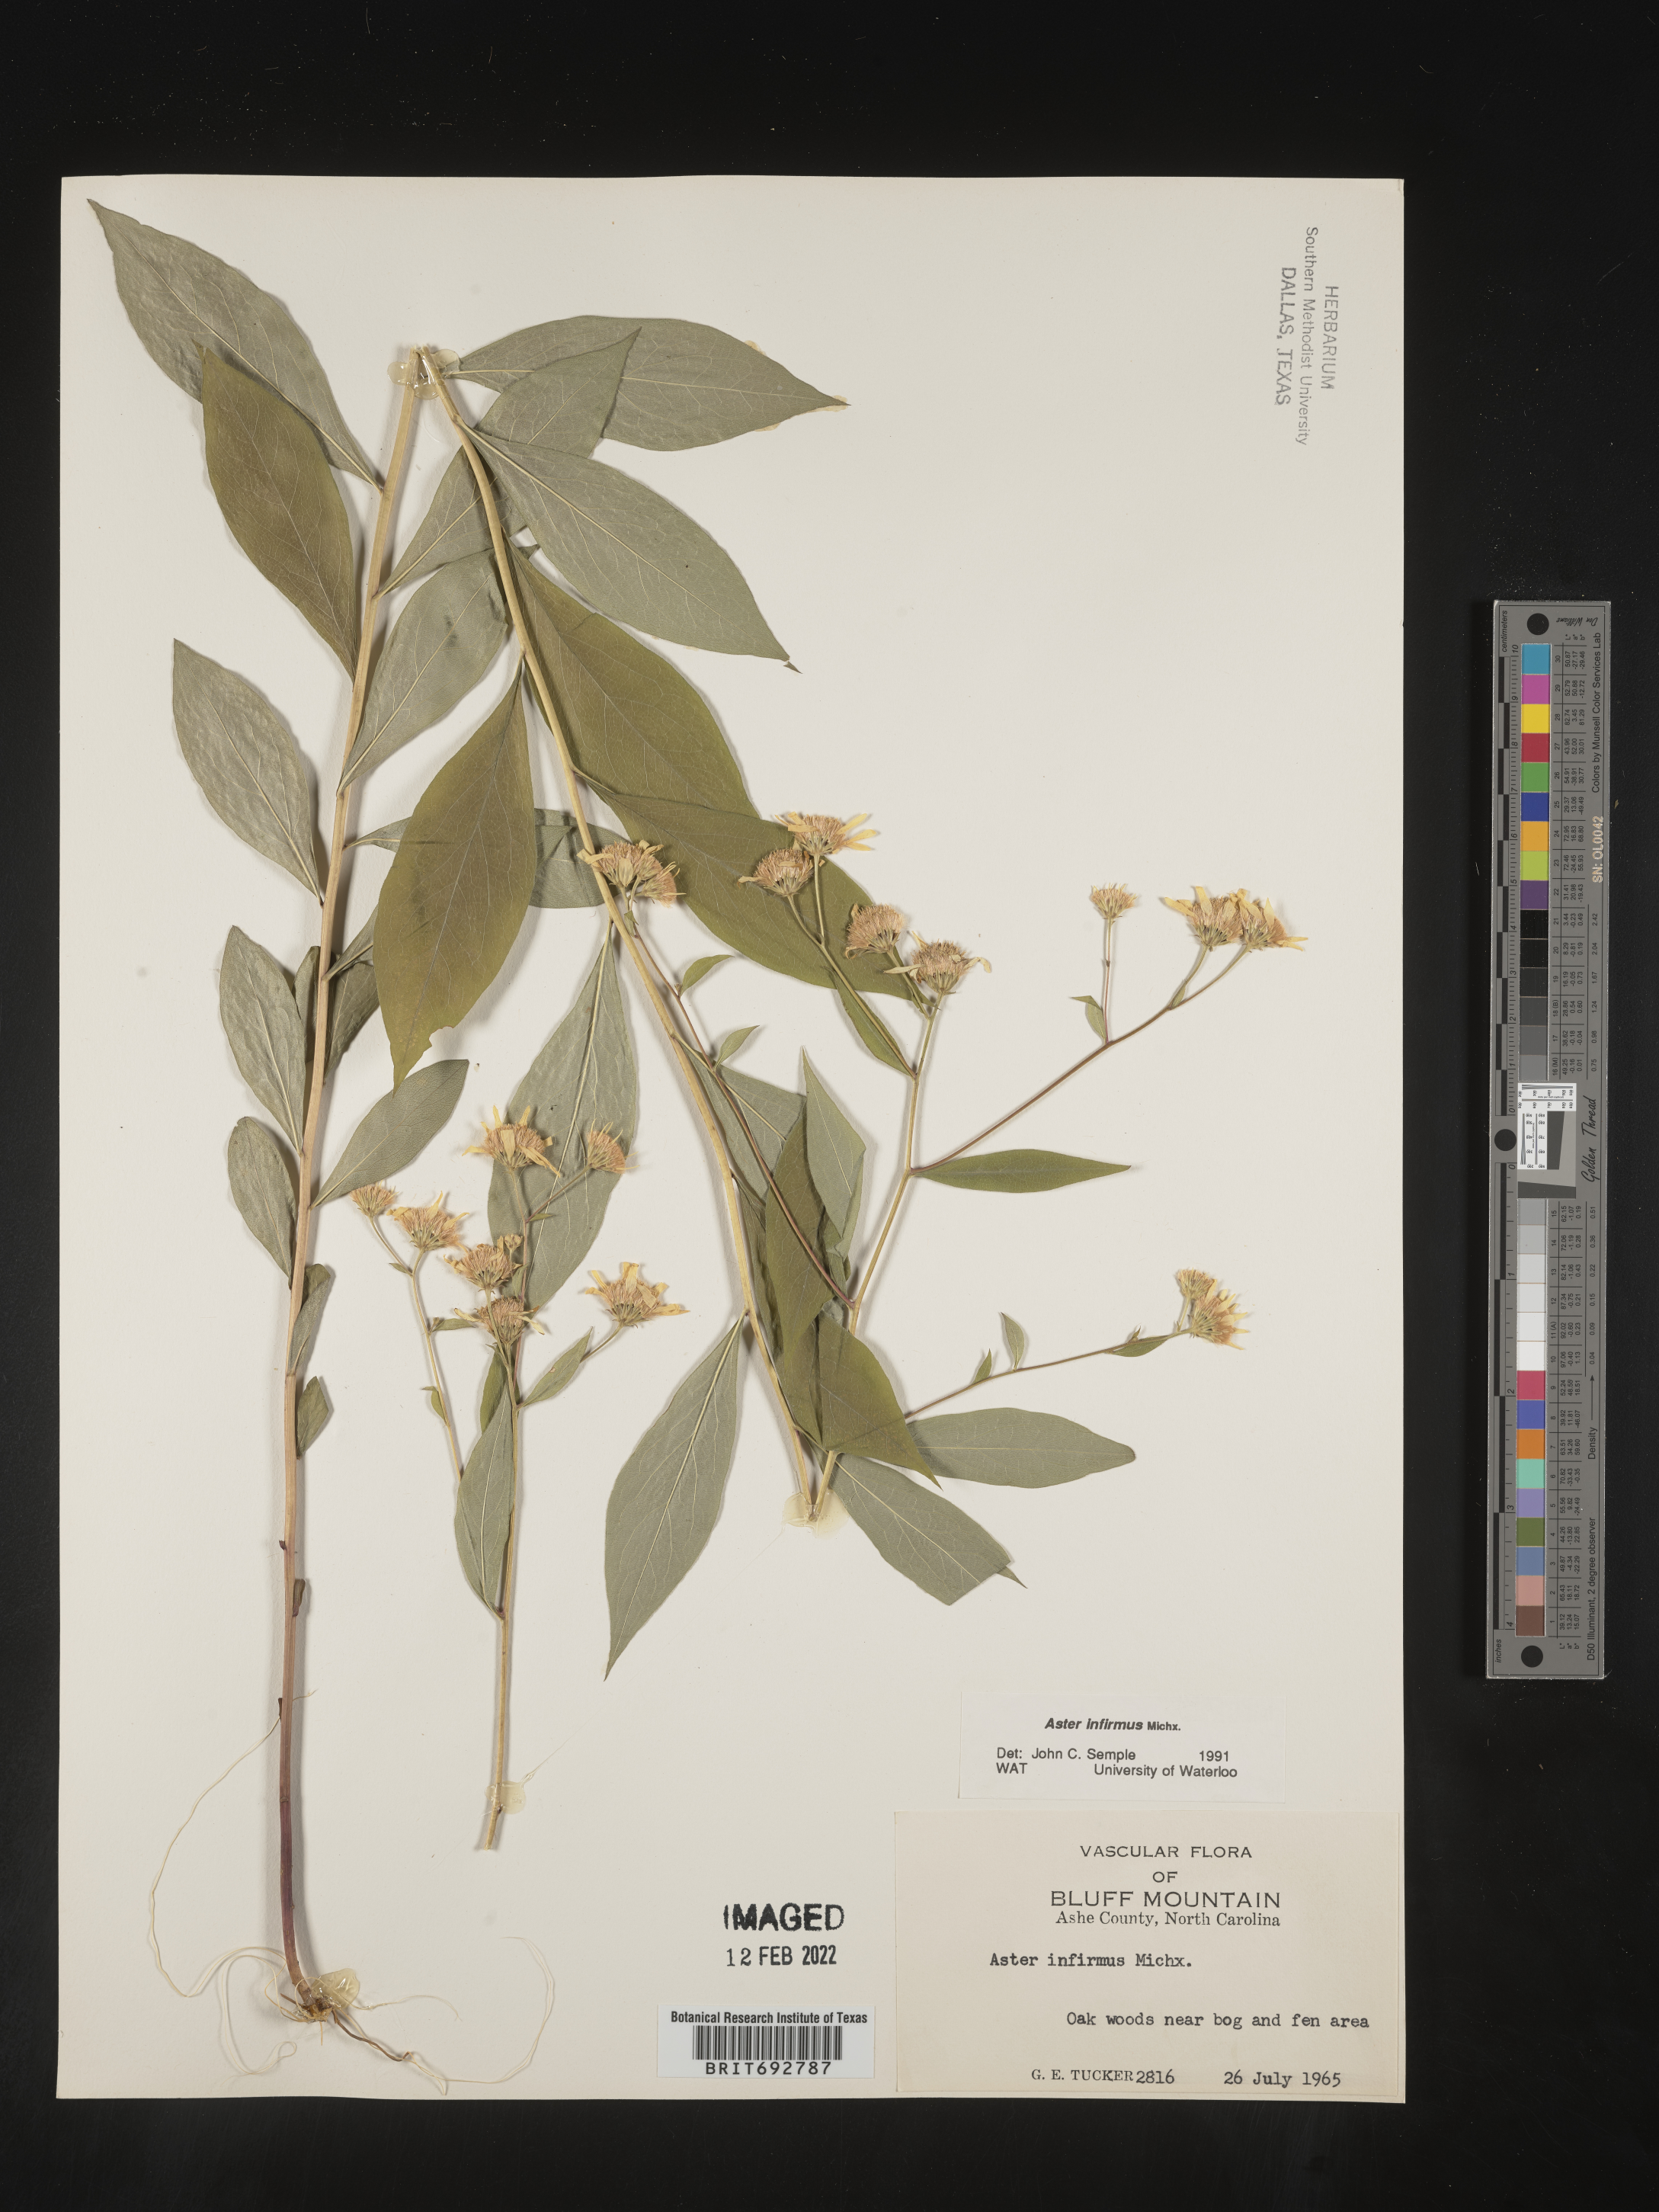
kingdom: Plantae
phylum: Tracheophyta
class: Magnoliopsida
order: Asterales
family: Asteraceae
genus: Doellingeria
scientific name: Doellingeria infirma
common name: Appalachian flat-top aster
